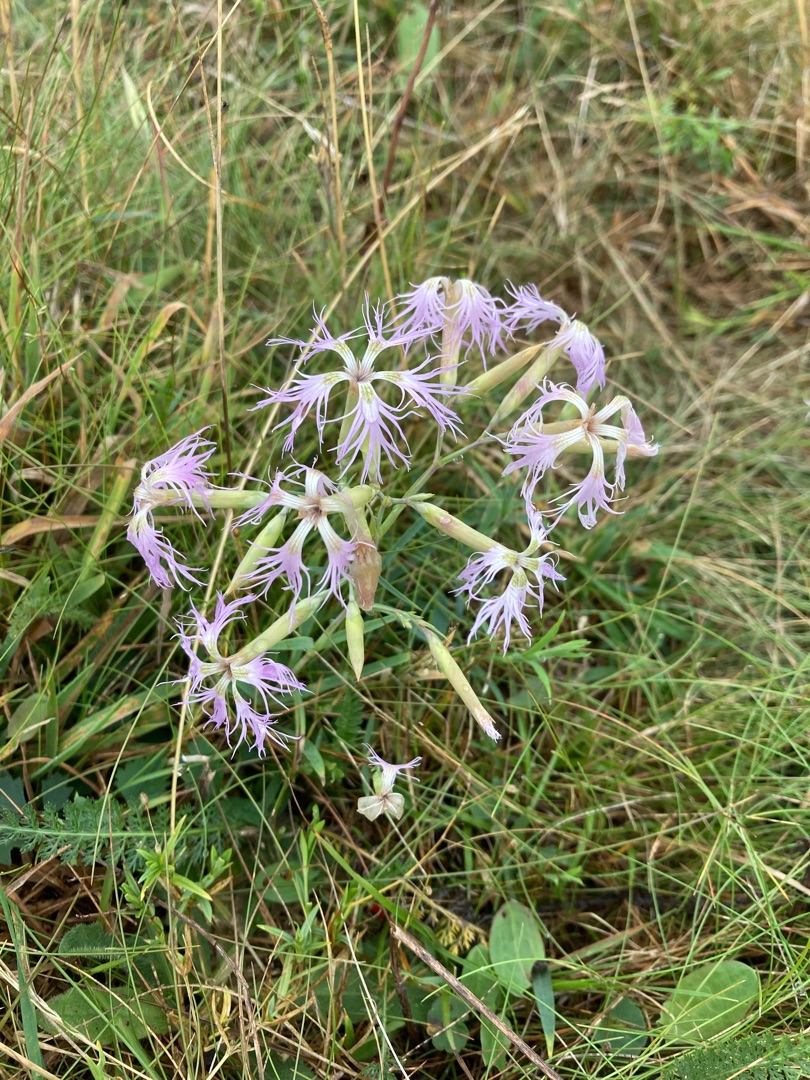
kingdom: Plantae
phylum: Tracheophyta
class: Magnoliopsida
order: Caryophyllales
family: Caryophyllaceae
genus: Dianthus
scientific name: Dianthus superbus
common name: Strand-nellike
